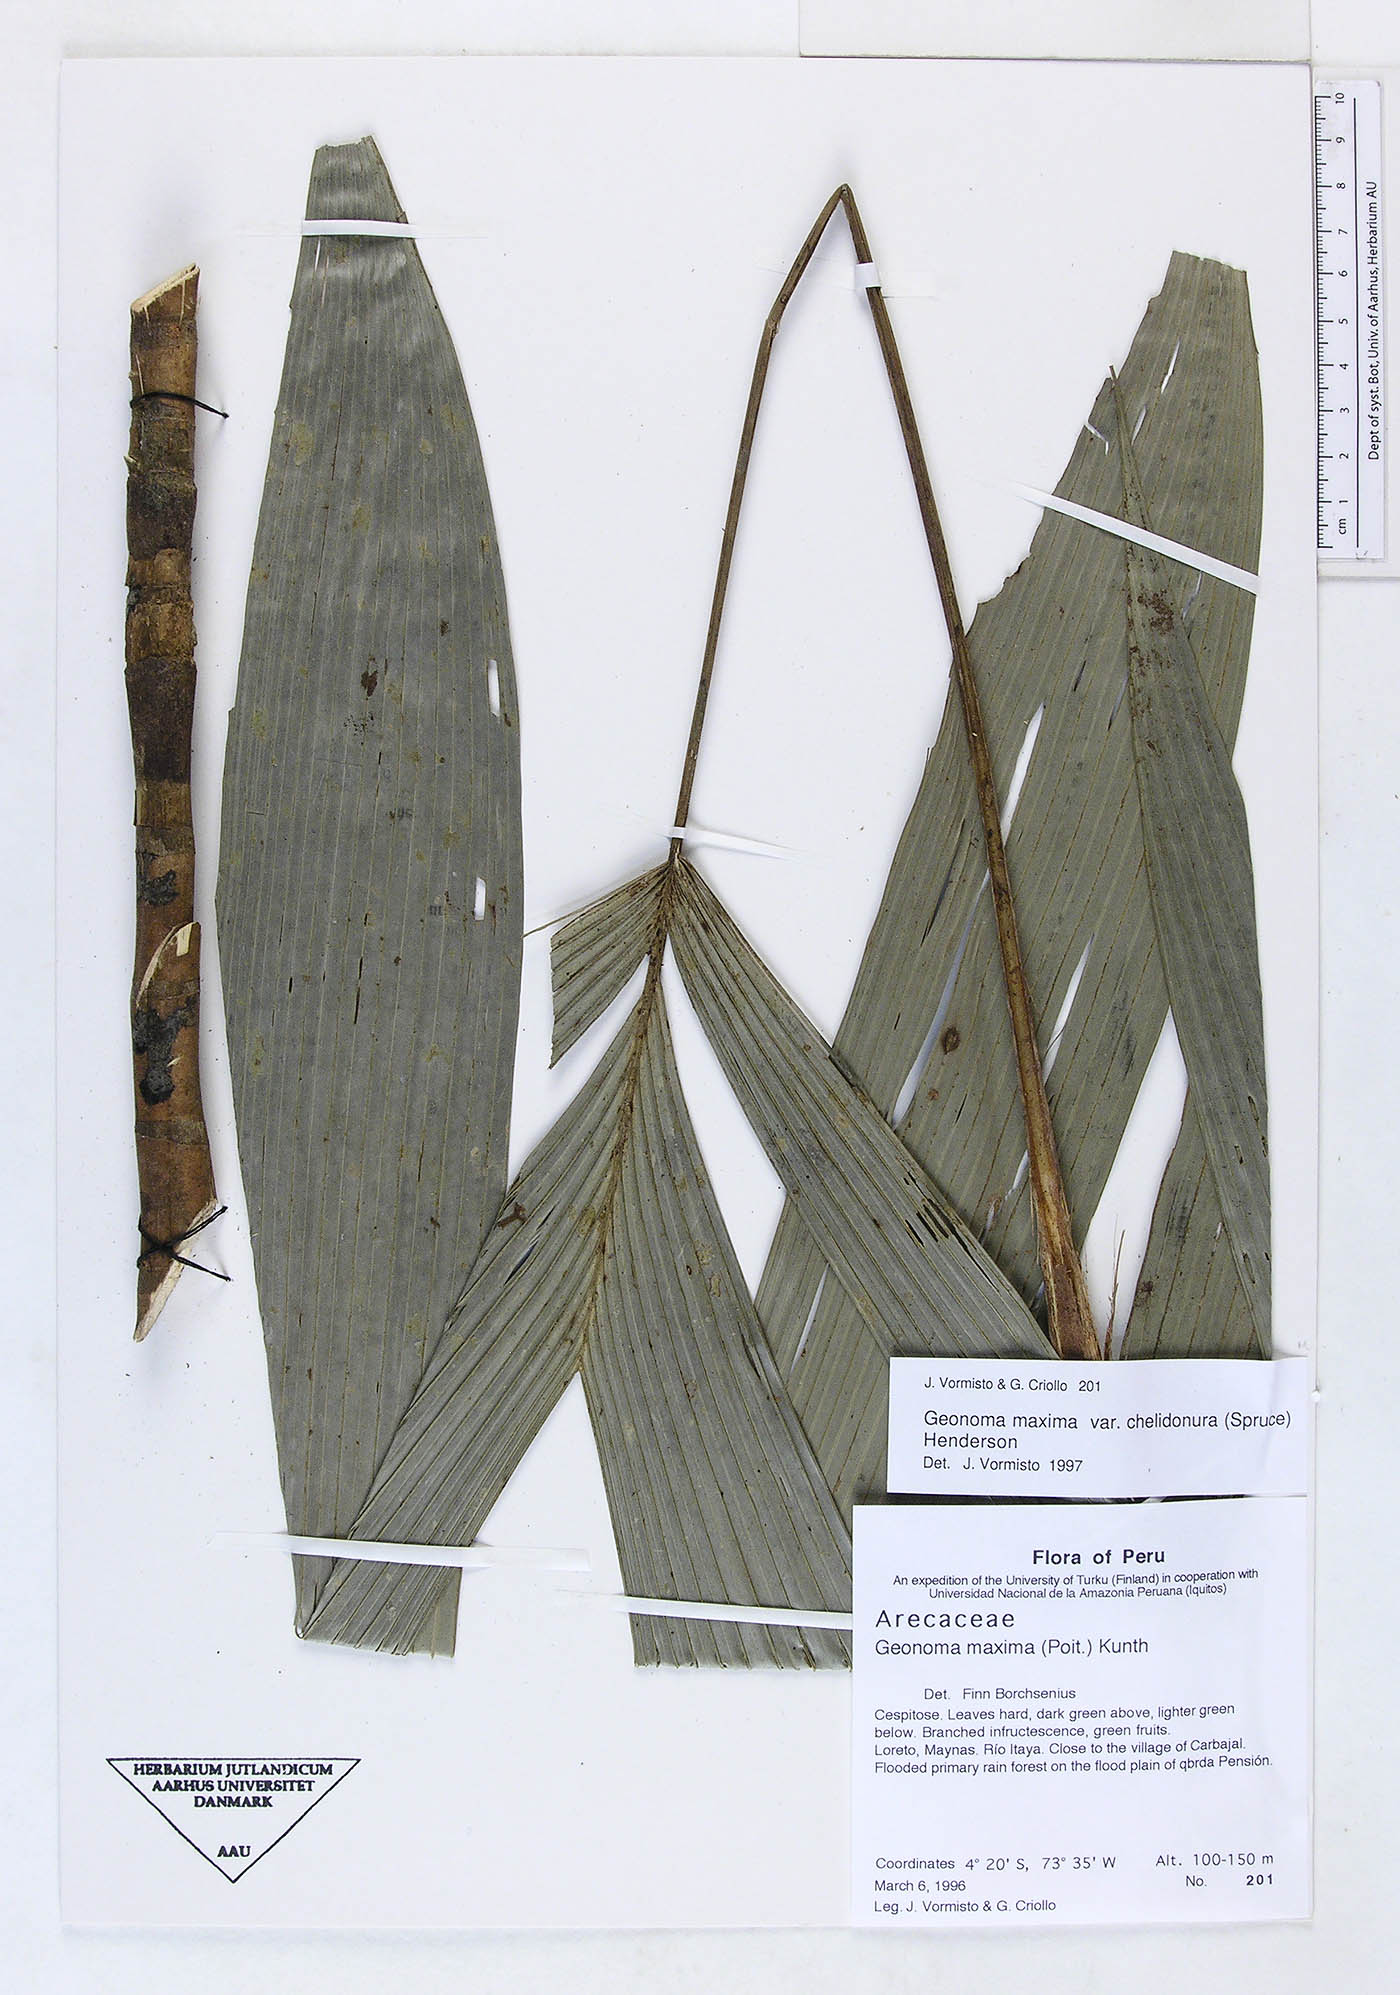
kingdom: Plantae
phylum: Tracheophyta
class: Liliopsida
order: Arecales
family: Arecaceae
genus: Geonoma
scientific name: Geonoma maxima
